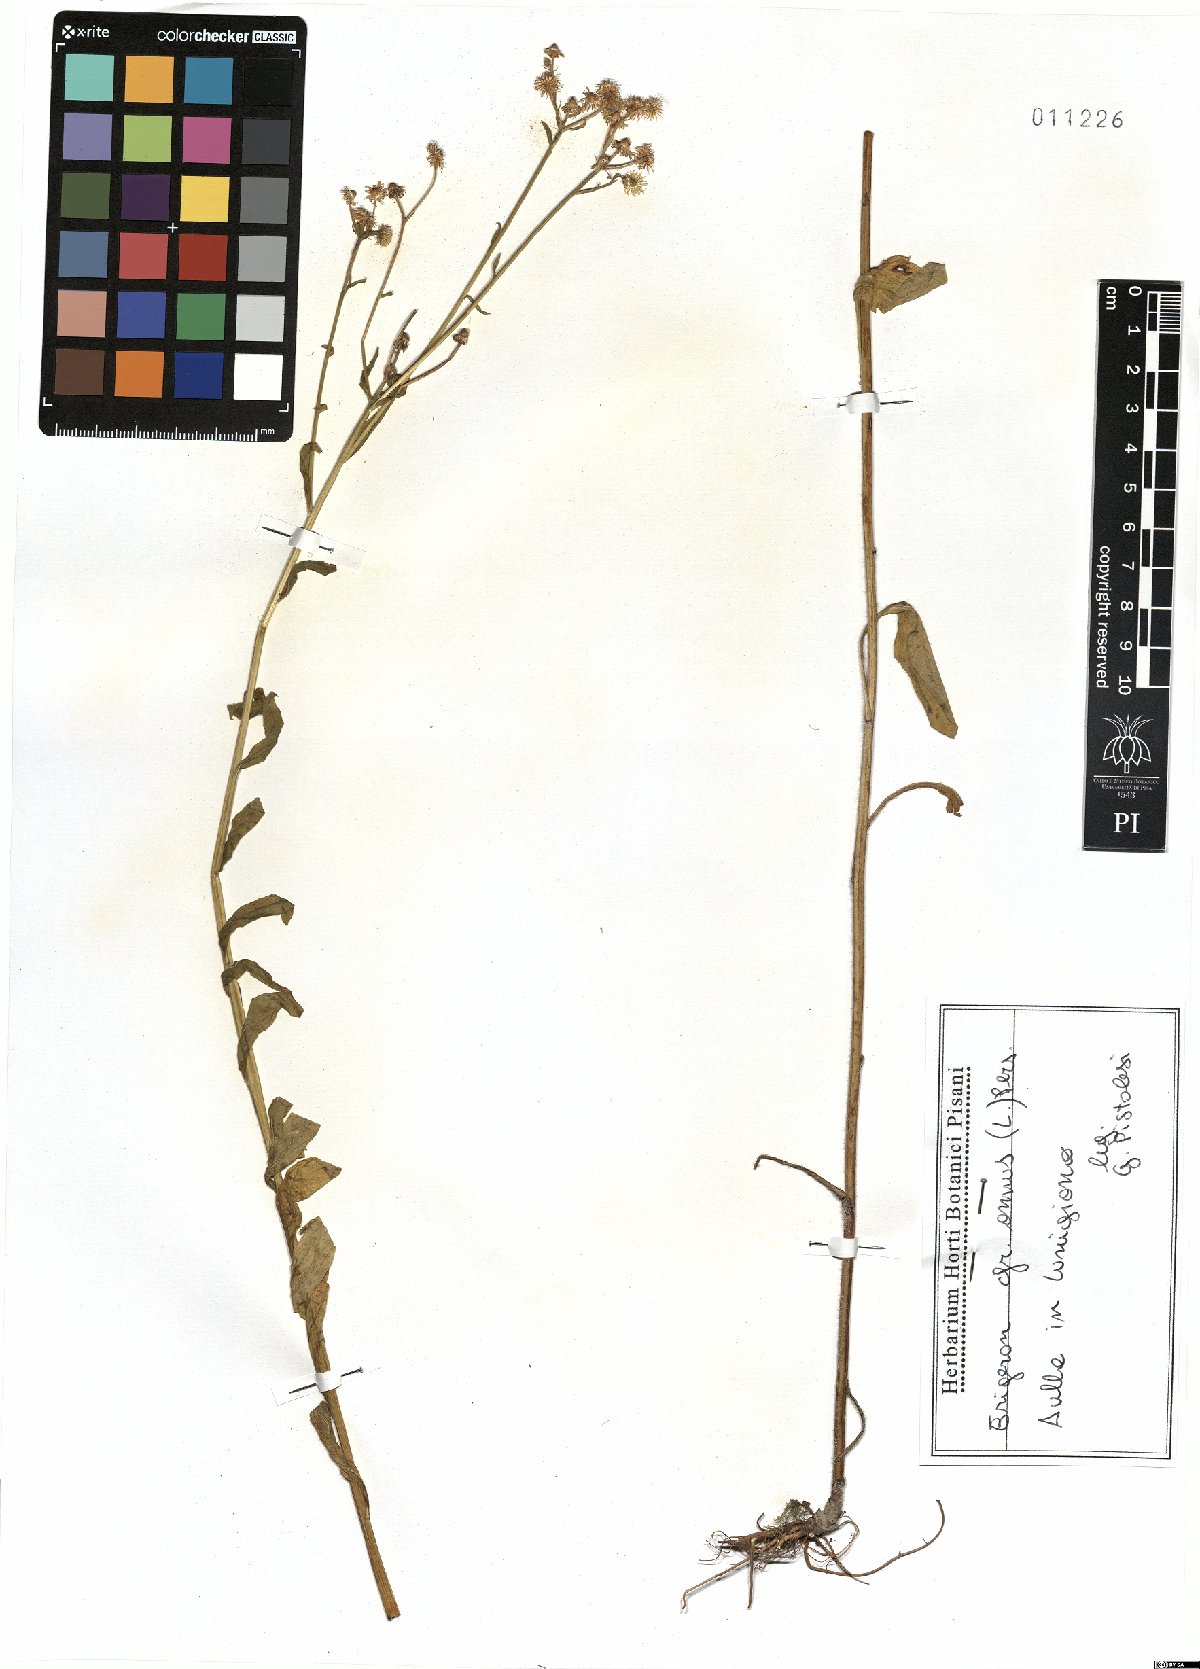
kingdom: Plantae
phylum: Tracheophyta
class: Magnoliopsida
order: Asterales
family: Asteraceae
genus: Erigeron
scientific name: Erigeron annuus
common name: Tall fleabane
